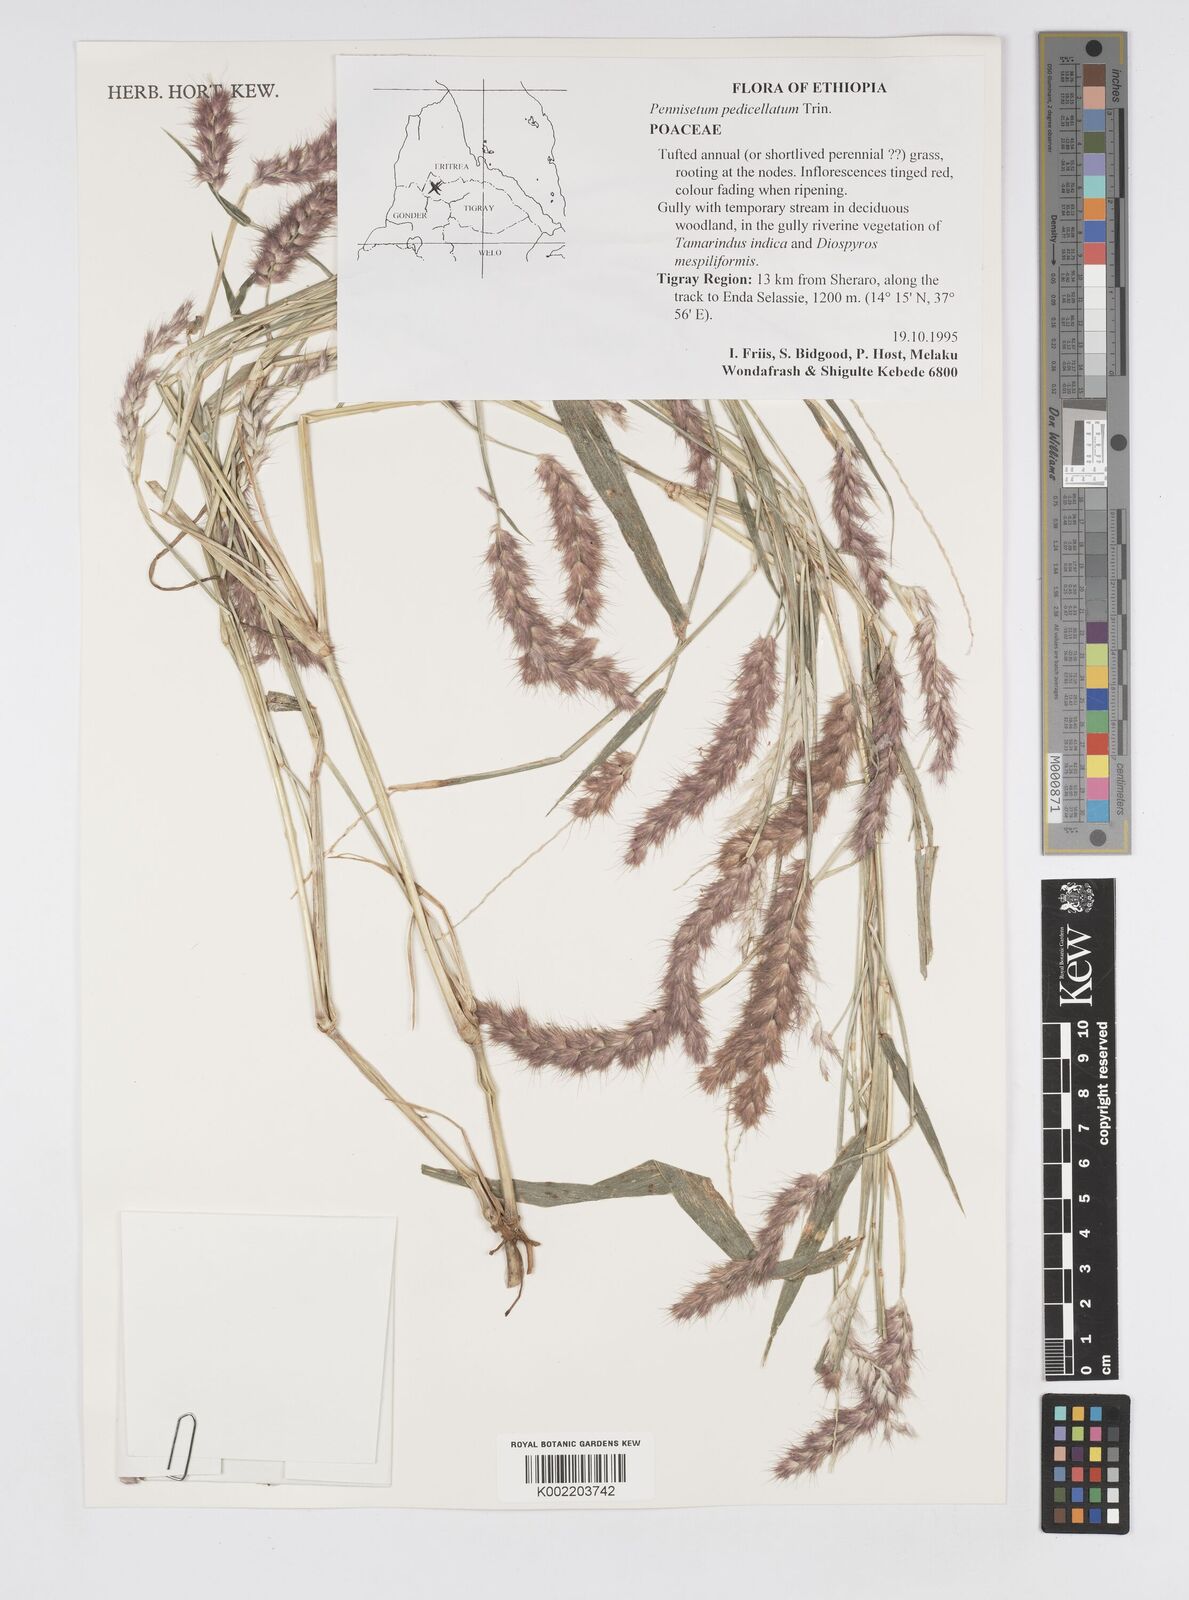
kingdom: Plantae
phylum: Tracheophyta
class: Liliopsida
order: Poales
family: Poaceae
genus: Cenchrus
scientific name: Cenchrus pedicellatus
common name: Hairy fountain grass
